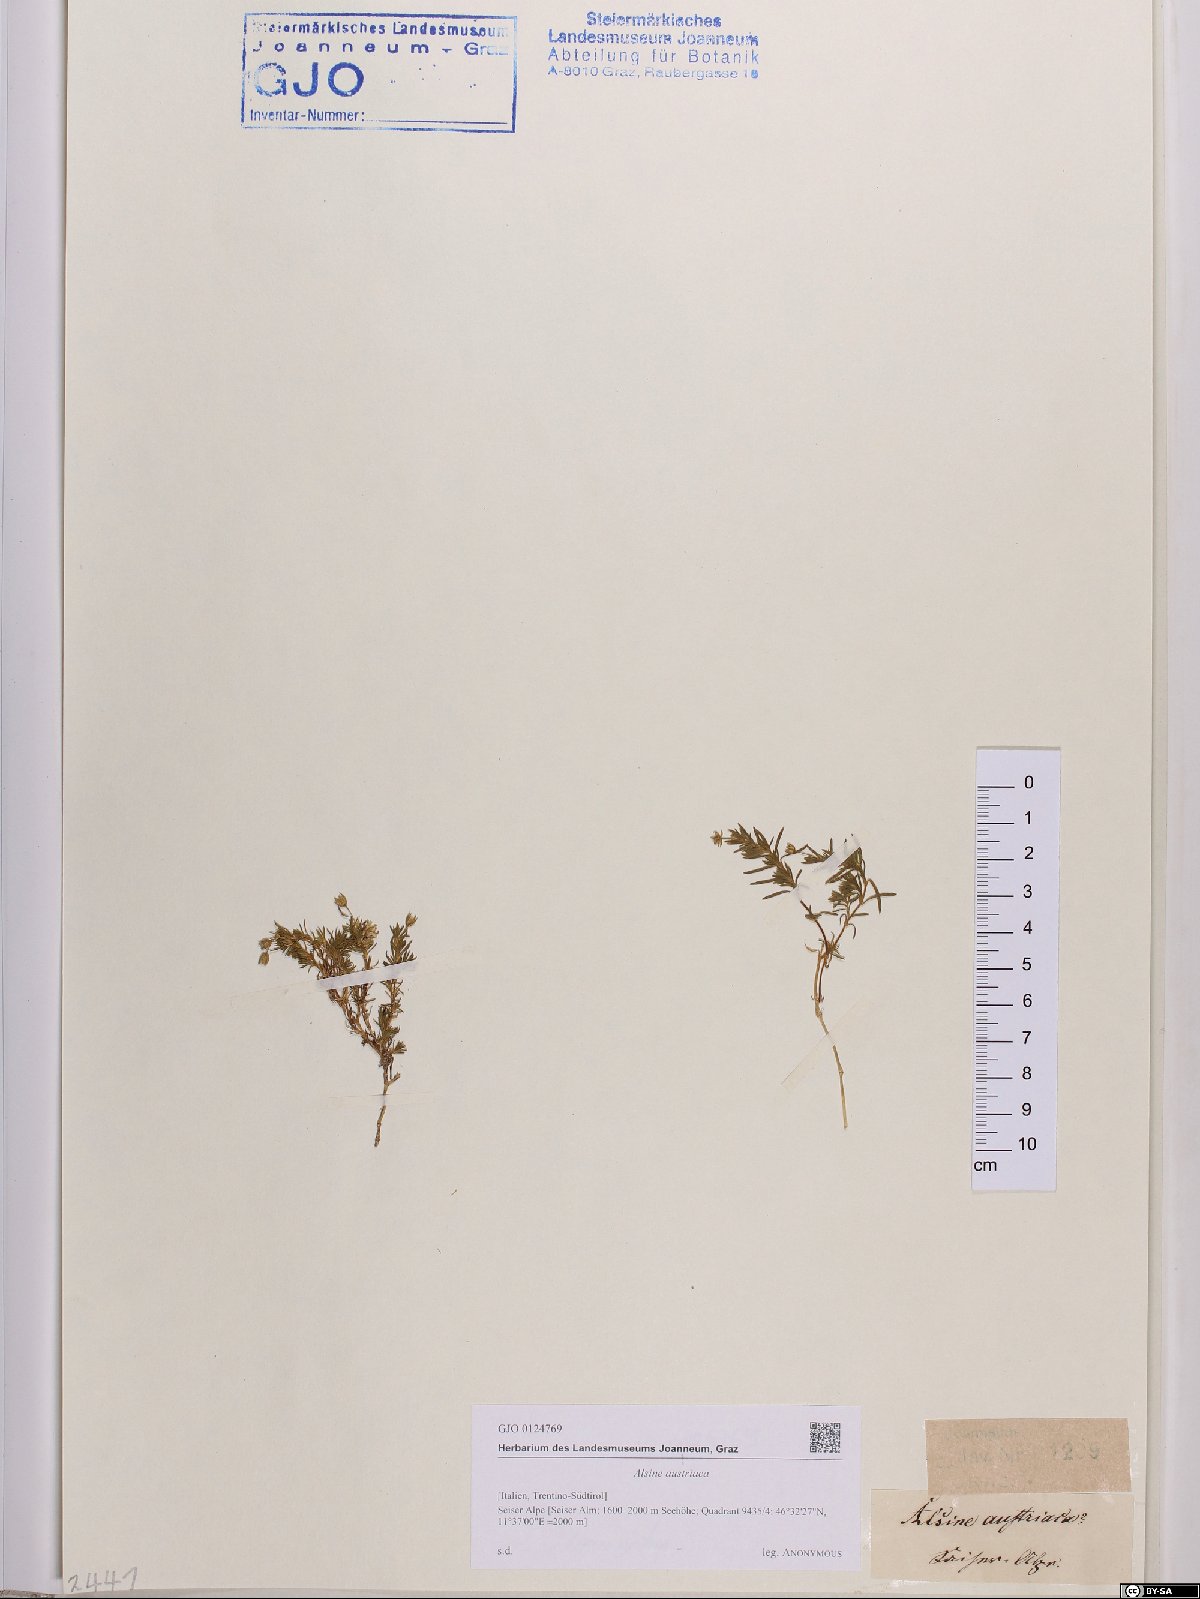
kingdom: Plantae
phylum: Tracheophyta
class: Magnoliopsida
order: Caryophyllales
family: Caryophyllaceae
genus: Sabulina
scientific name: Sabulina austriaca
